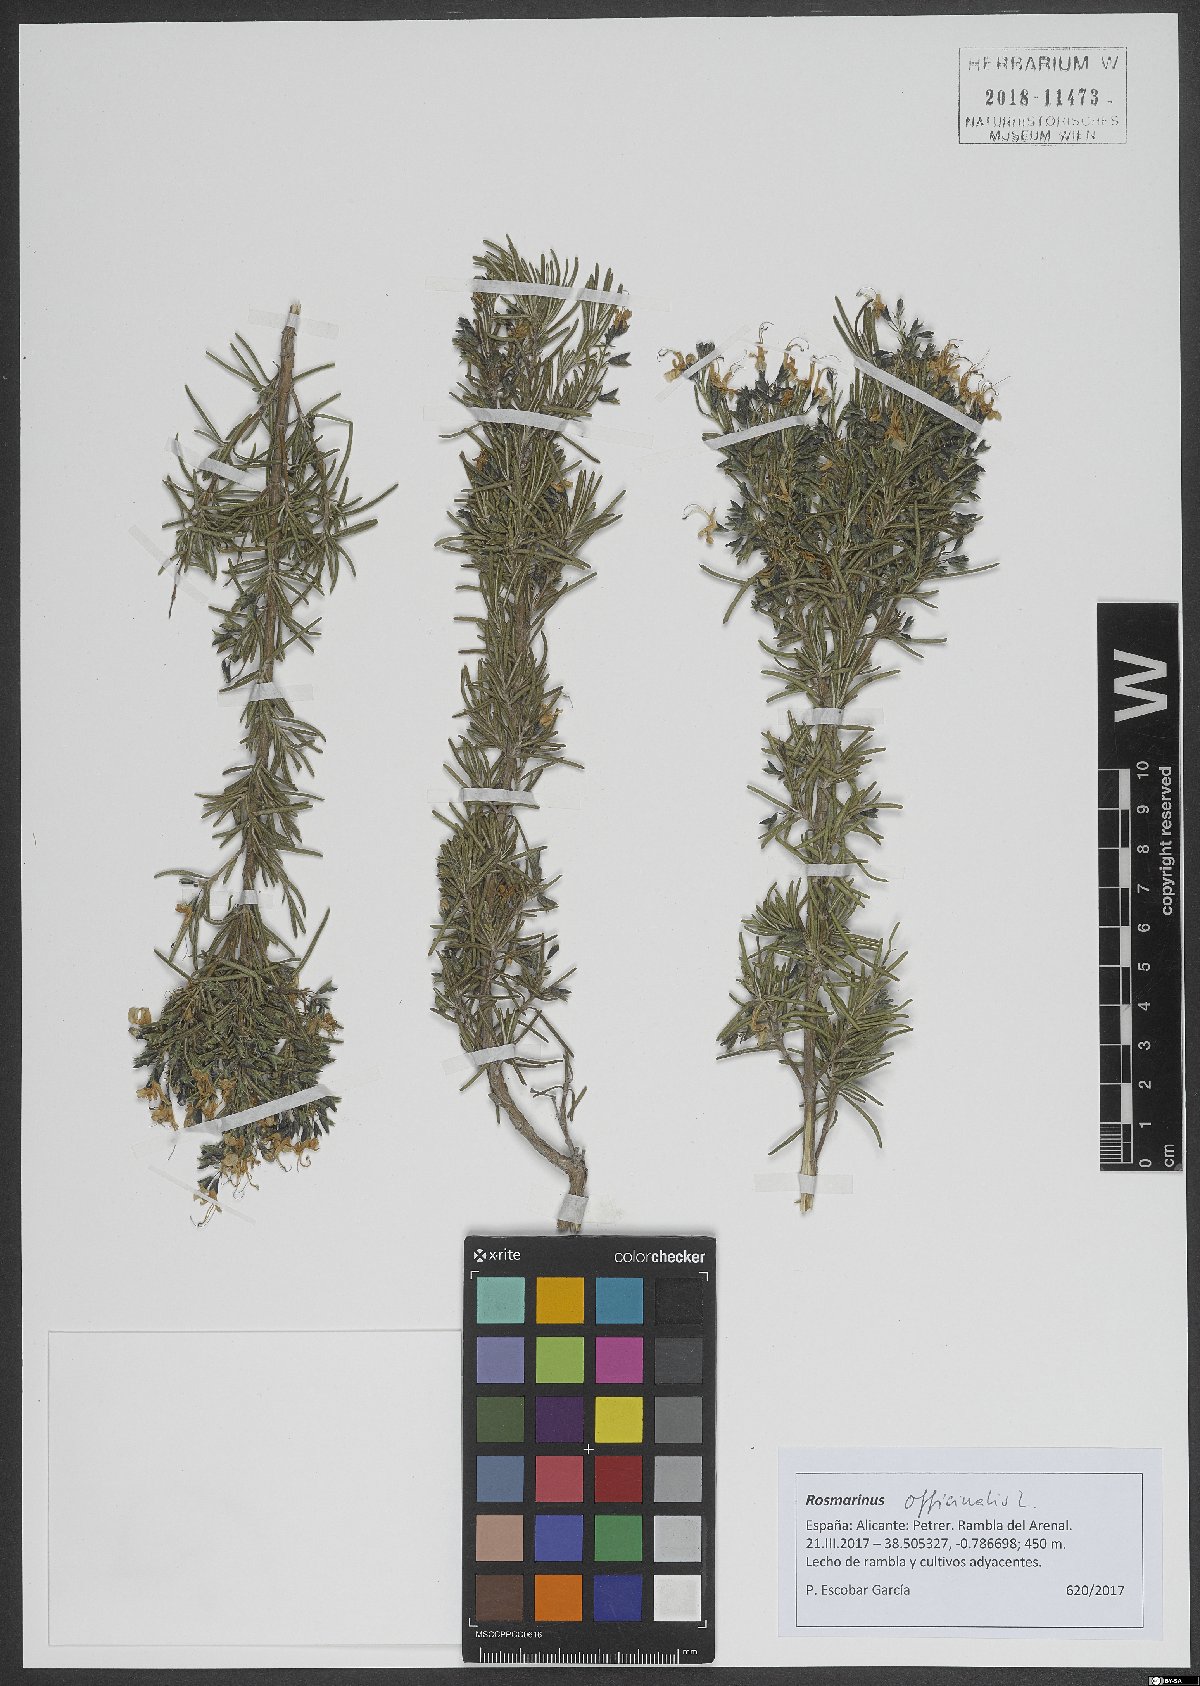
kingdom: Plantae
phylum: Tracheophyta
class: Magnoliopsida
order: Lamiales
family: Lamiaceae
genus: Salvia
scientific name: Salvia rosmarinus
